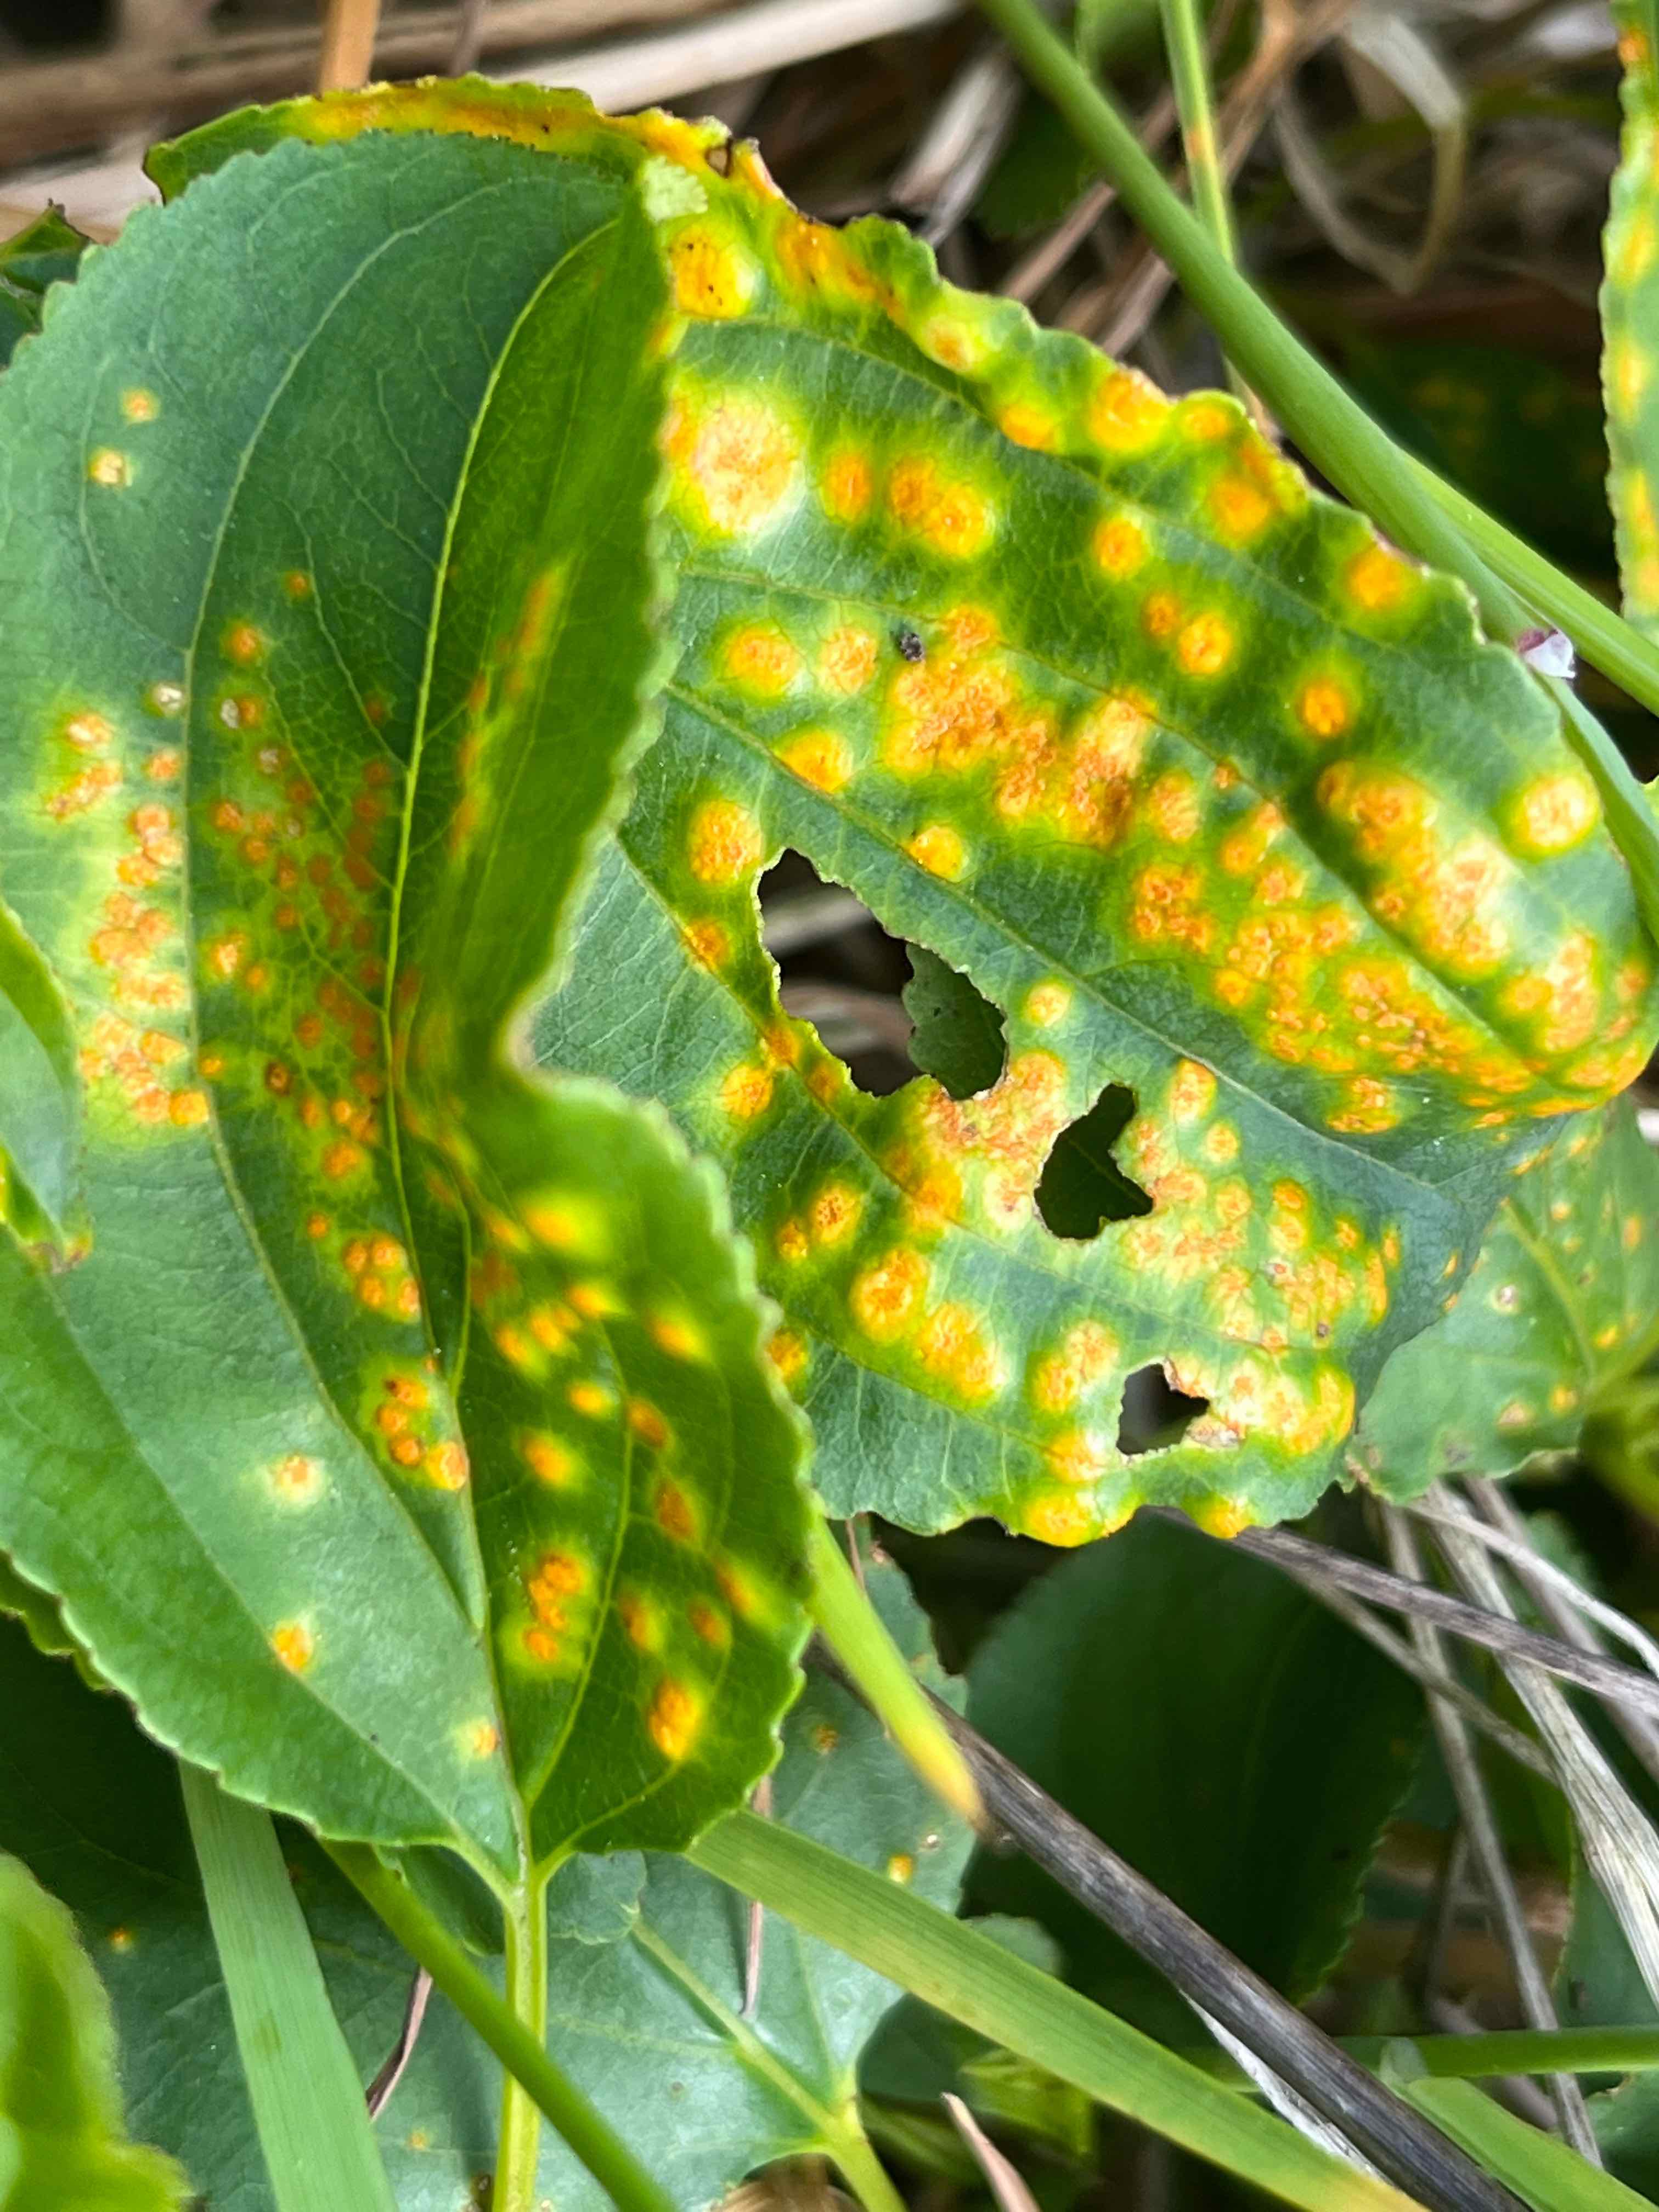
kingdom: Fungi
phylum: Basidiomycota
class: Pucciniomycetes
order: Pucciniales
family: Pucciniaceae
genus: Puccinia
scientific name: Puccinia coronata
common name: Crown rust
